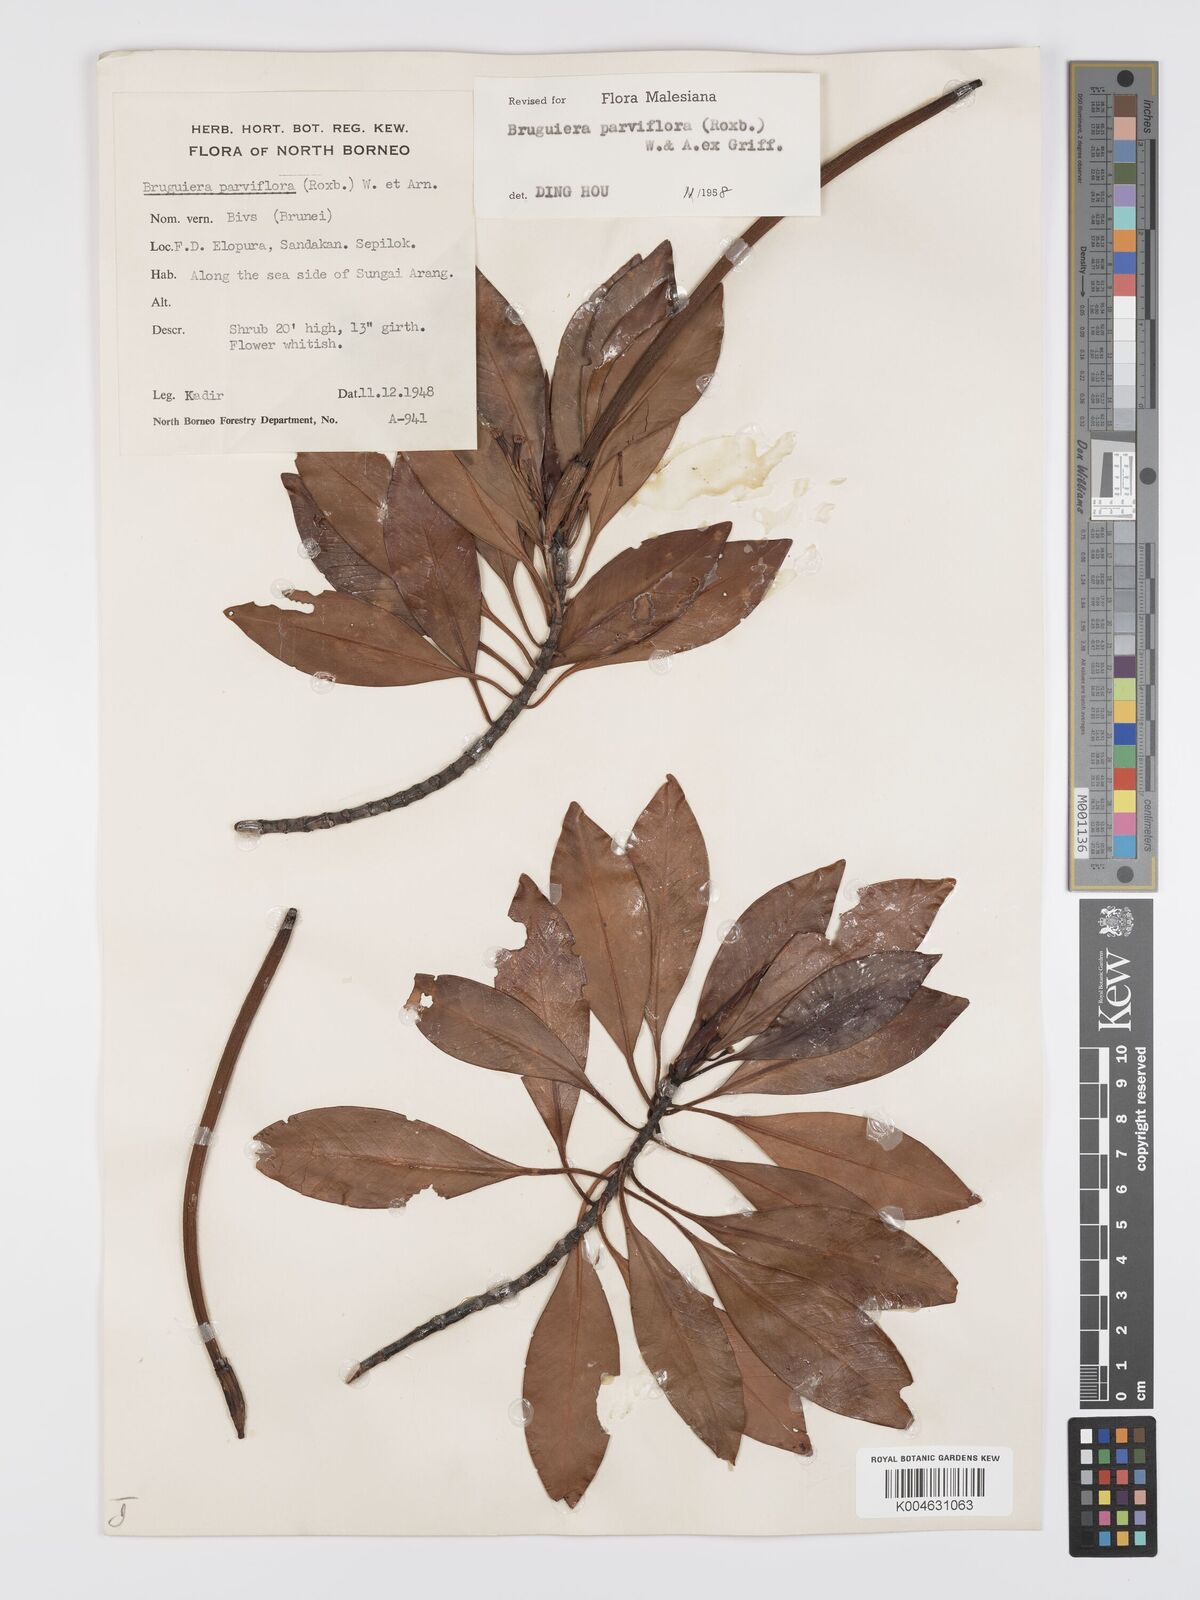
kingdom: Plantae
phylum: Tracheophyta
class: Magnoliopsida
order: Malpighiales
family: Rhizophoraceae
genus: Bruguiera
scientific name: Bruguiera parviflora
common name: Smallflower bruguiera
